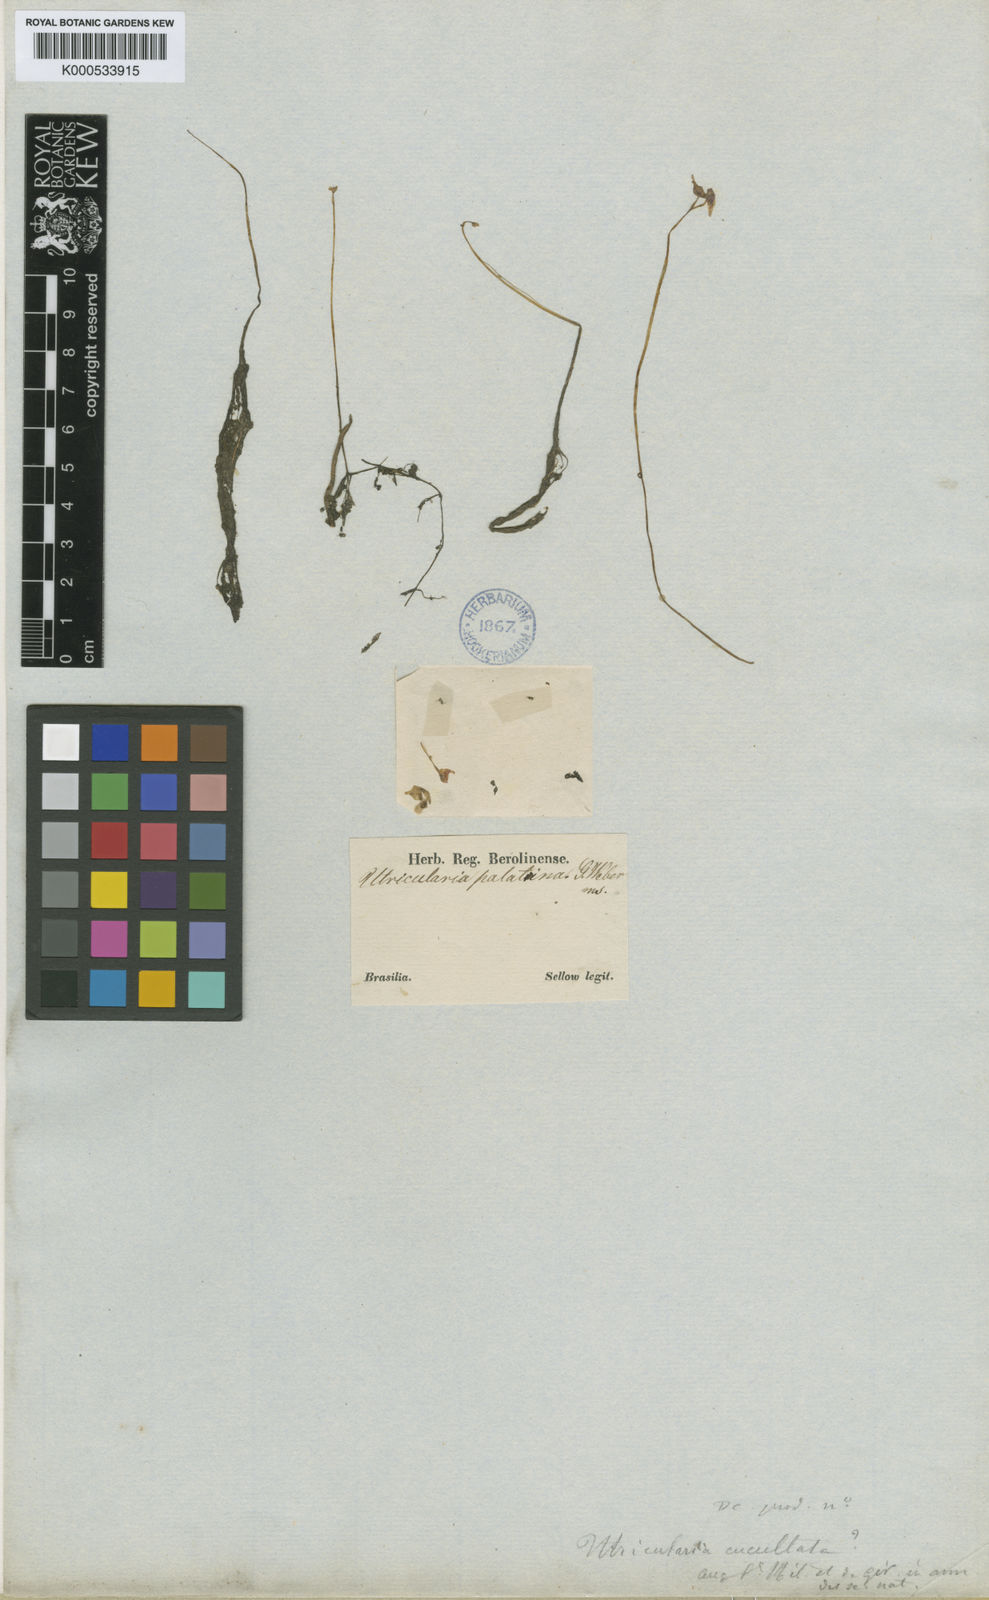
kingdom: Plantae
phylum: Tracheophyta
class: Magnoliopsida
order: Lamiales
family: Lentibulariaceae
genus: Utricularia
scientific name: Utricularia cucullata
